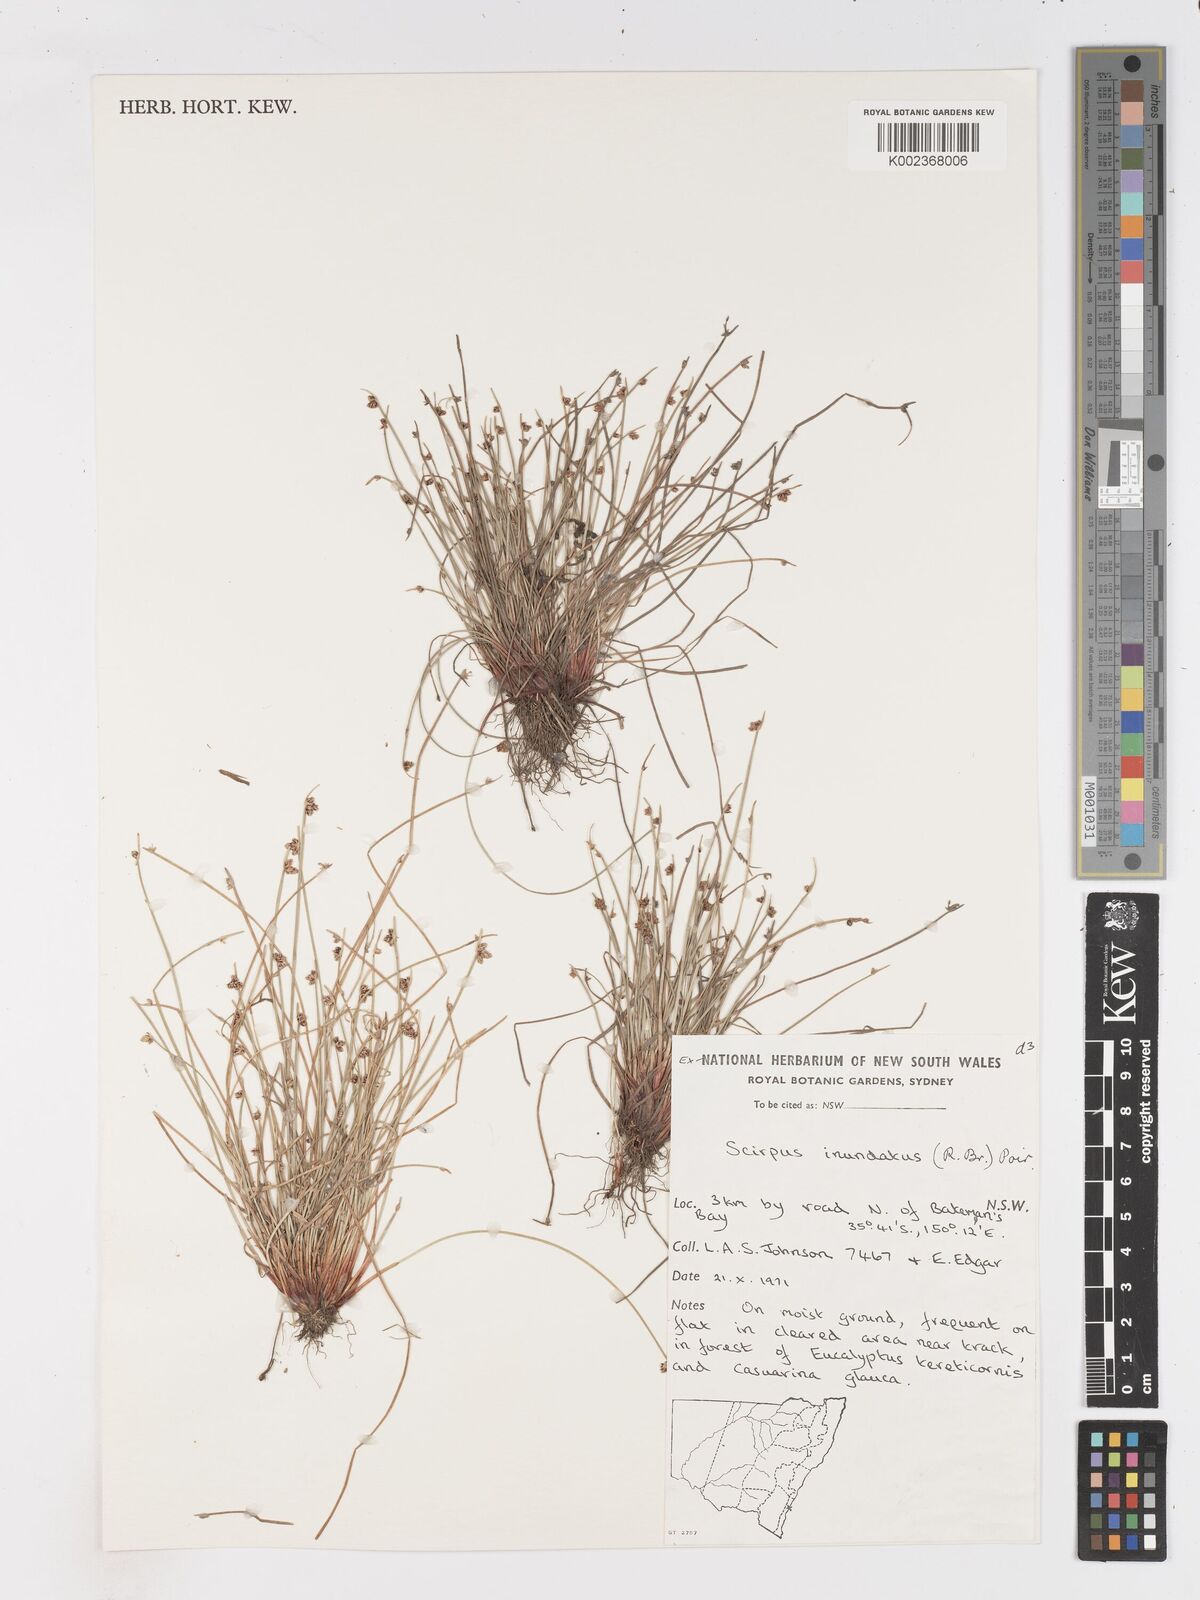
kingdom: Plantae
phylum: Tracheophyta
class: Liliopsida
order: Poales
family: Cyperaceae
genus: Isolepis
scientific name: Isolepis inundata
